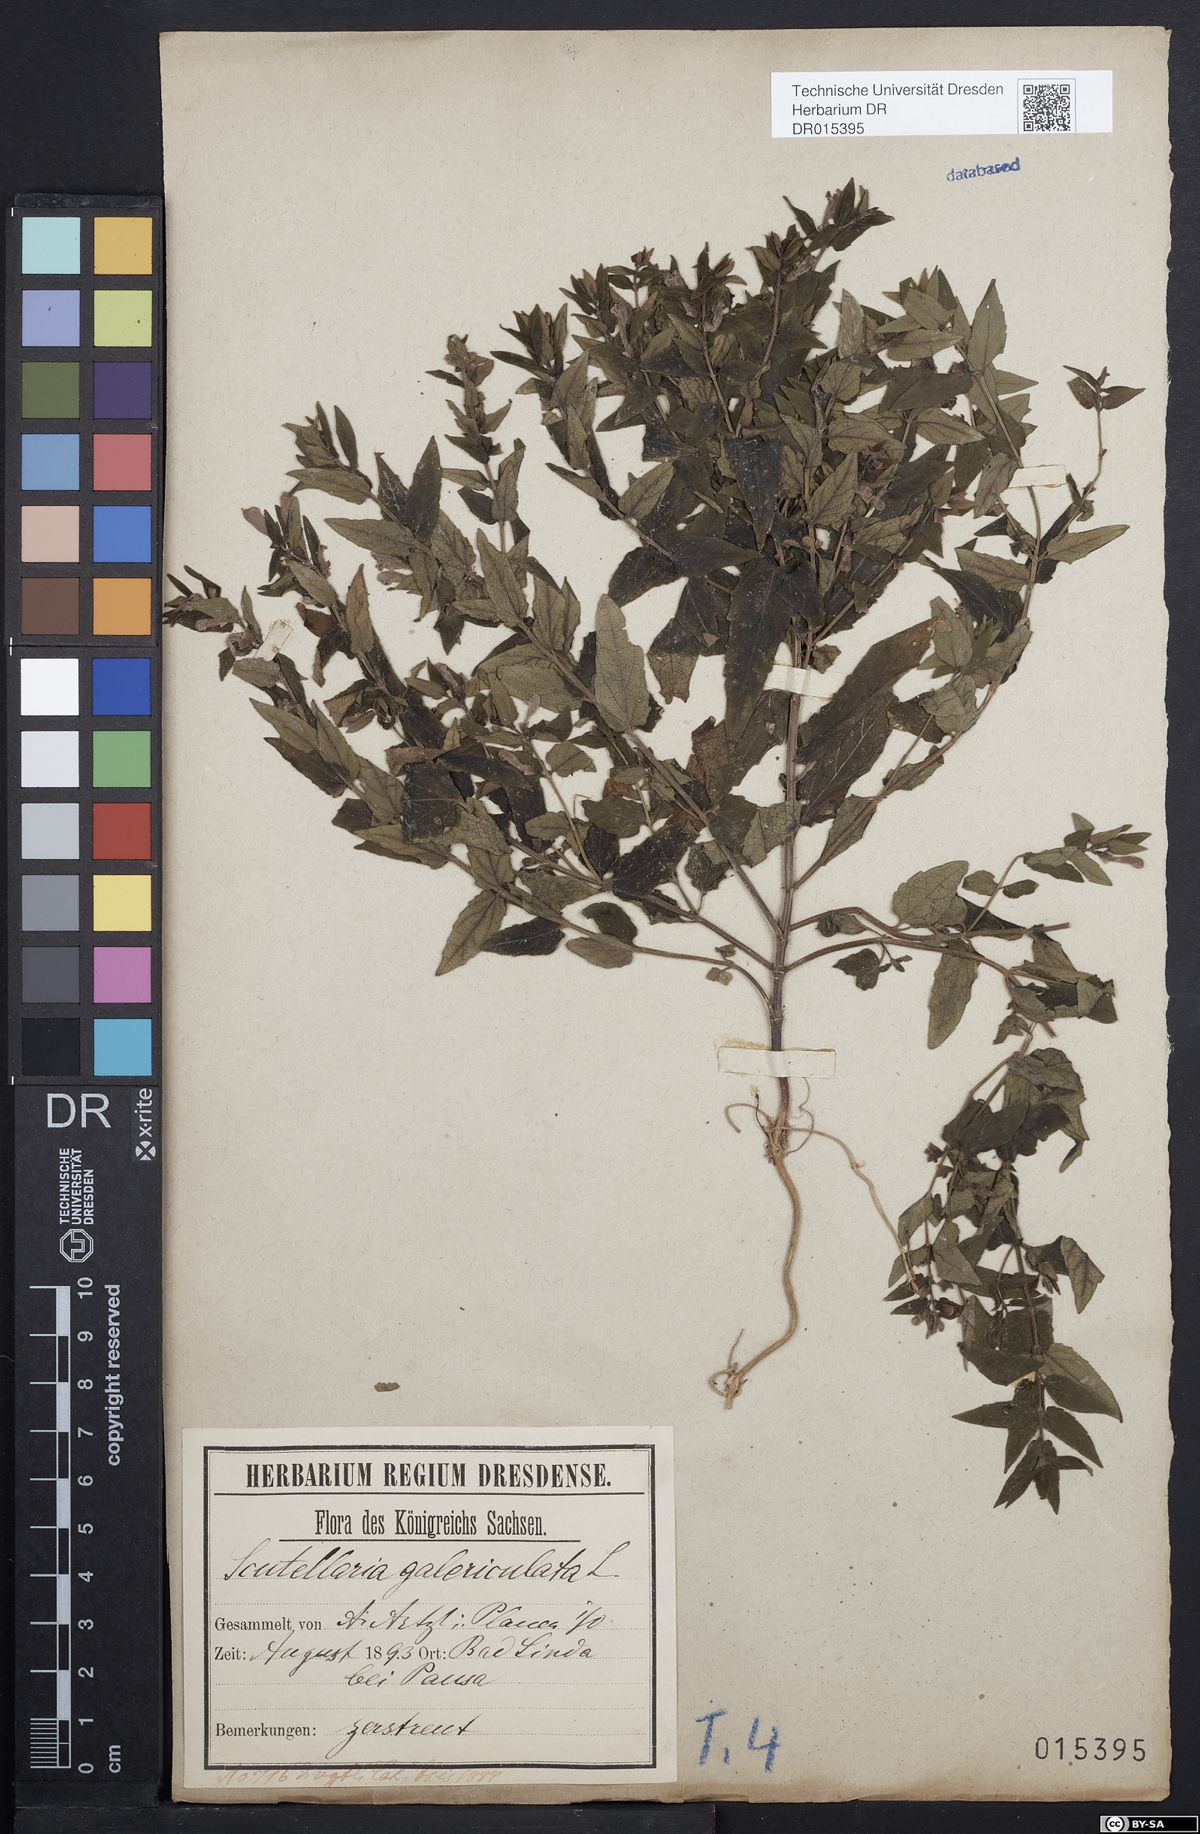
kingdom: Plantae
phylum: Tracheophyta
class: Magnoliopsida
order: Lamiales
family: Lamiaceae
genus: Scutellaria
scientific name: Scutellaria galericulata
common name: Skullcap
